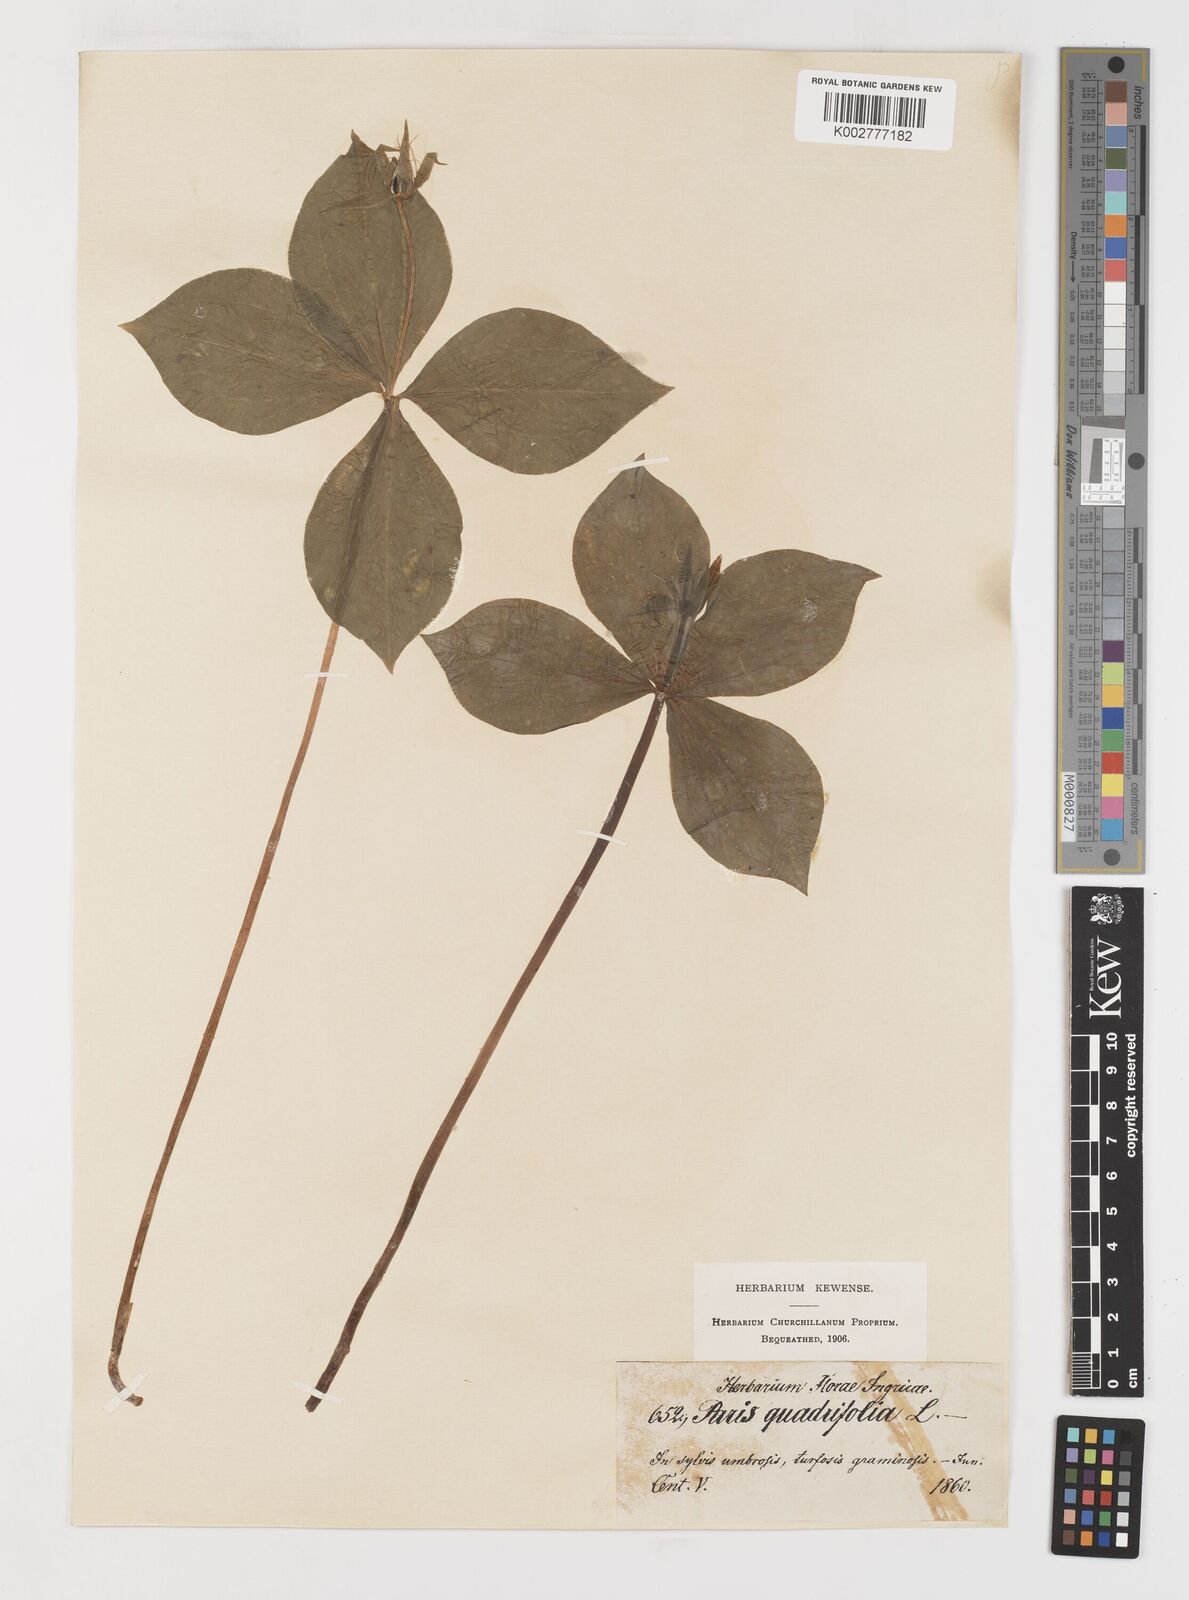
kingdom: Plantae
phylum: Tracheophyta
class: Liliopsida
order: Liliales
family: Melanthiaceae
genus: Paris
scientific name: Paris quadrifolia
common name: Herb-paris
